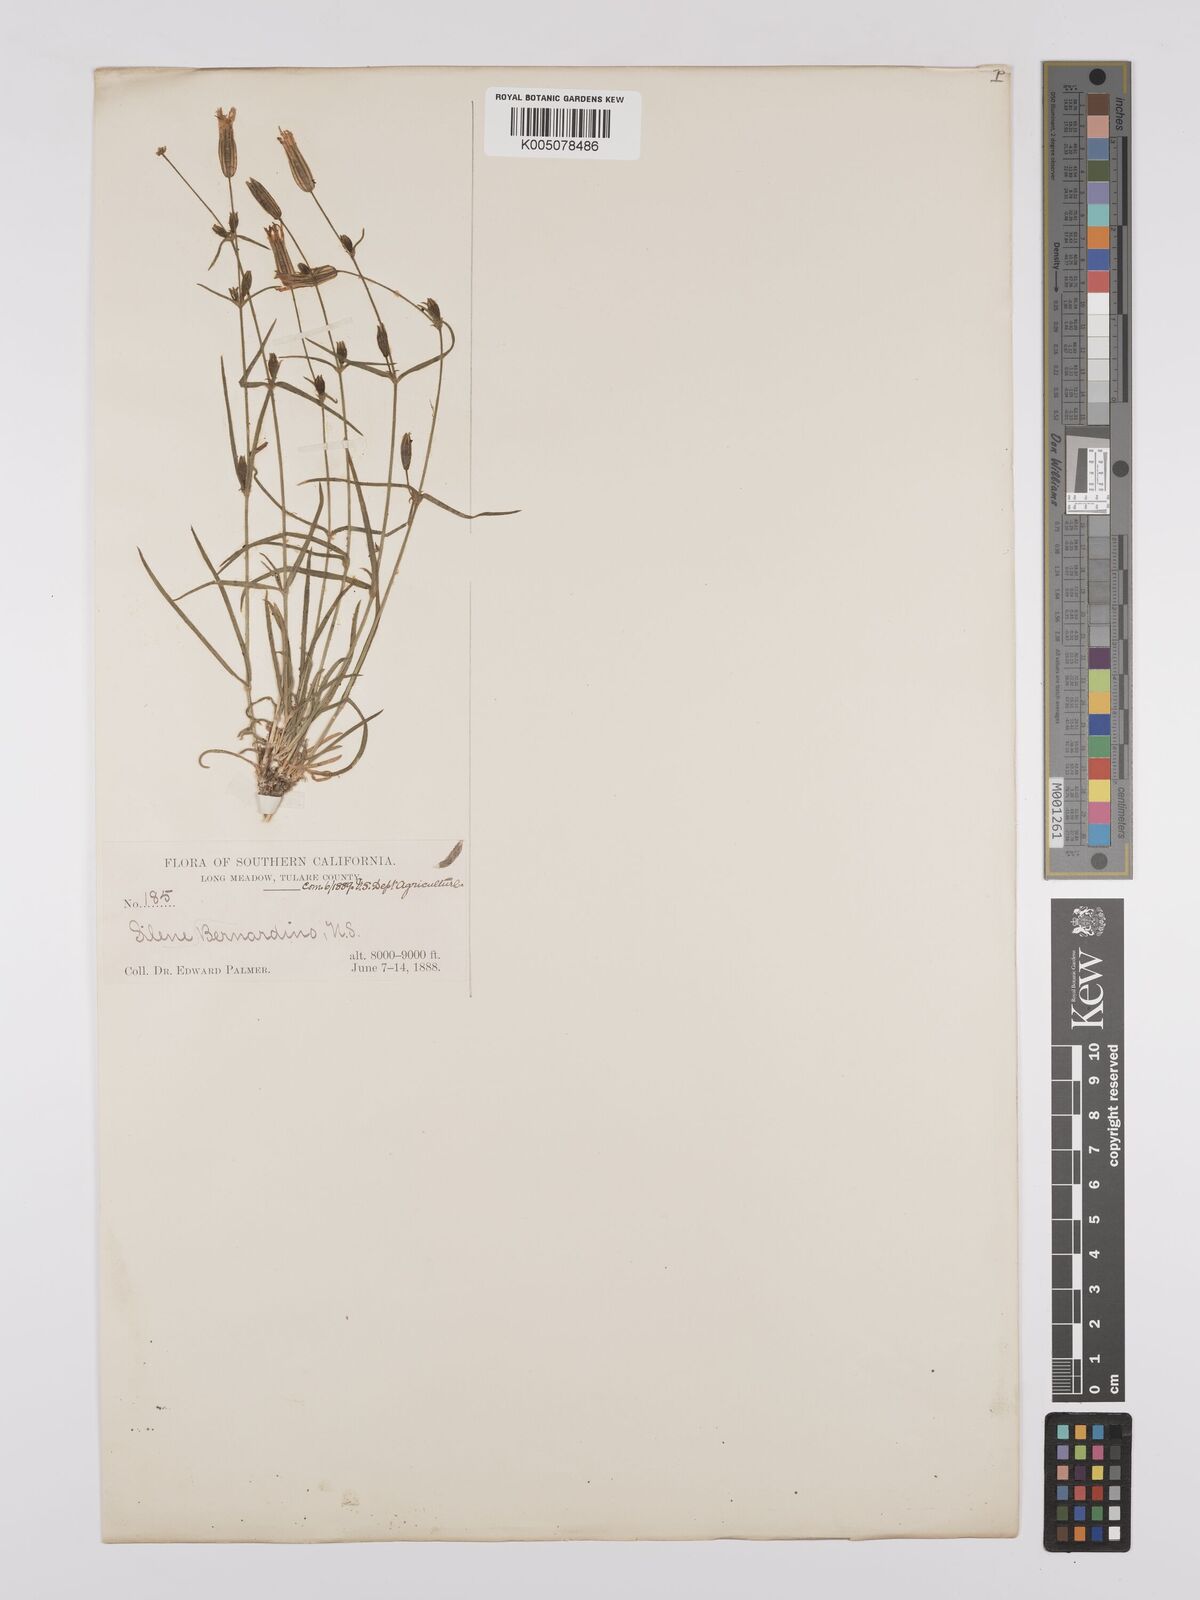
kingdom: Plantae
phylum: Tracheophyta
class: Magnoliopsida
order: Caryophyllales
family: Caryophyllaceae
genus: Silene
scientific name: Silene bernardina
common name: Palmer's catchfly
